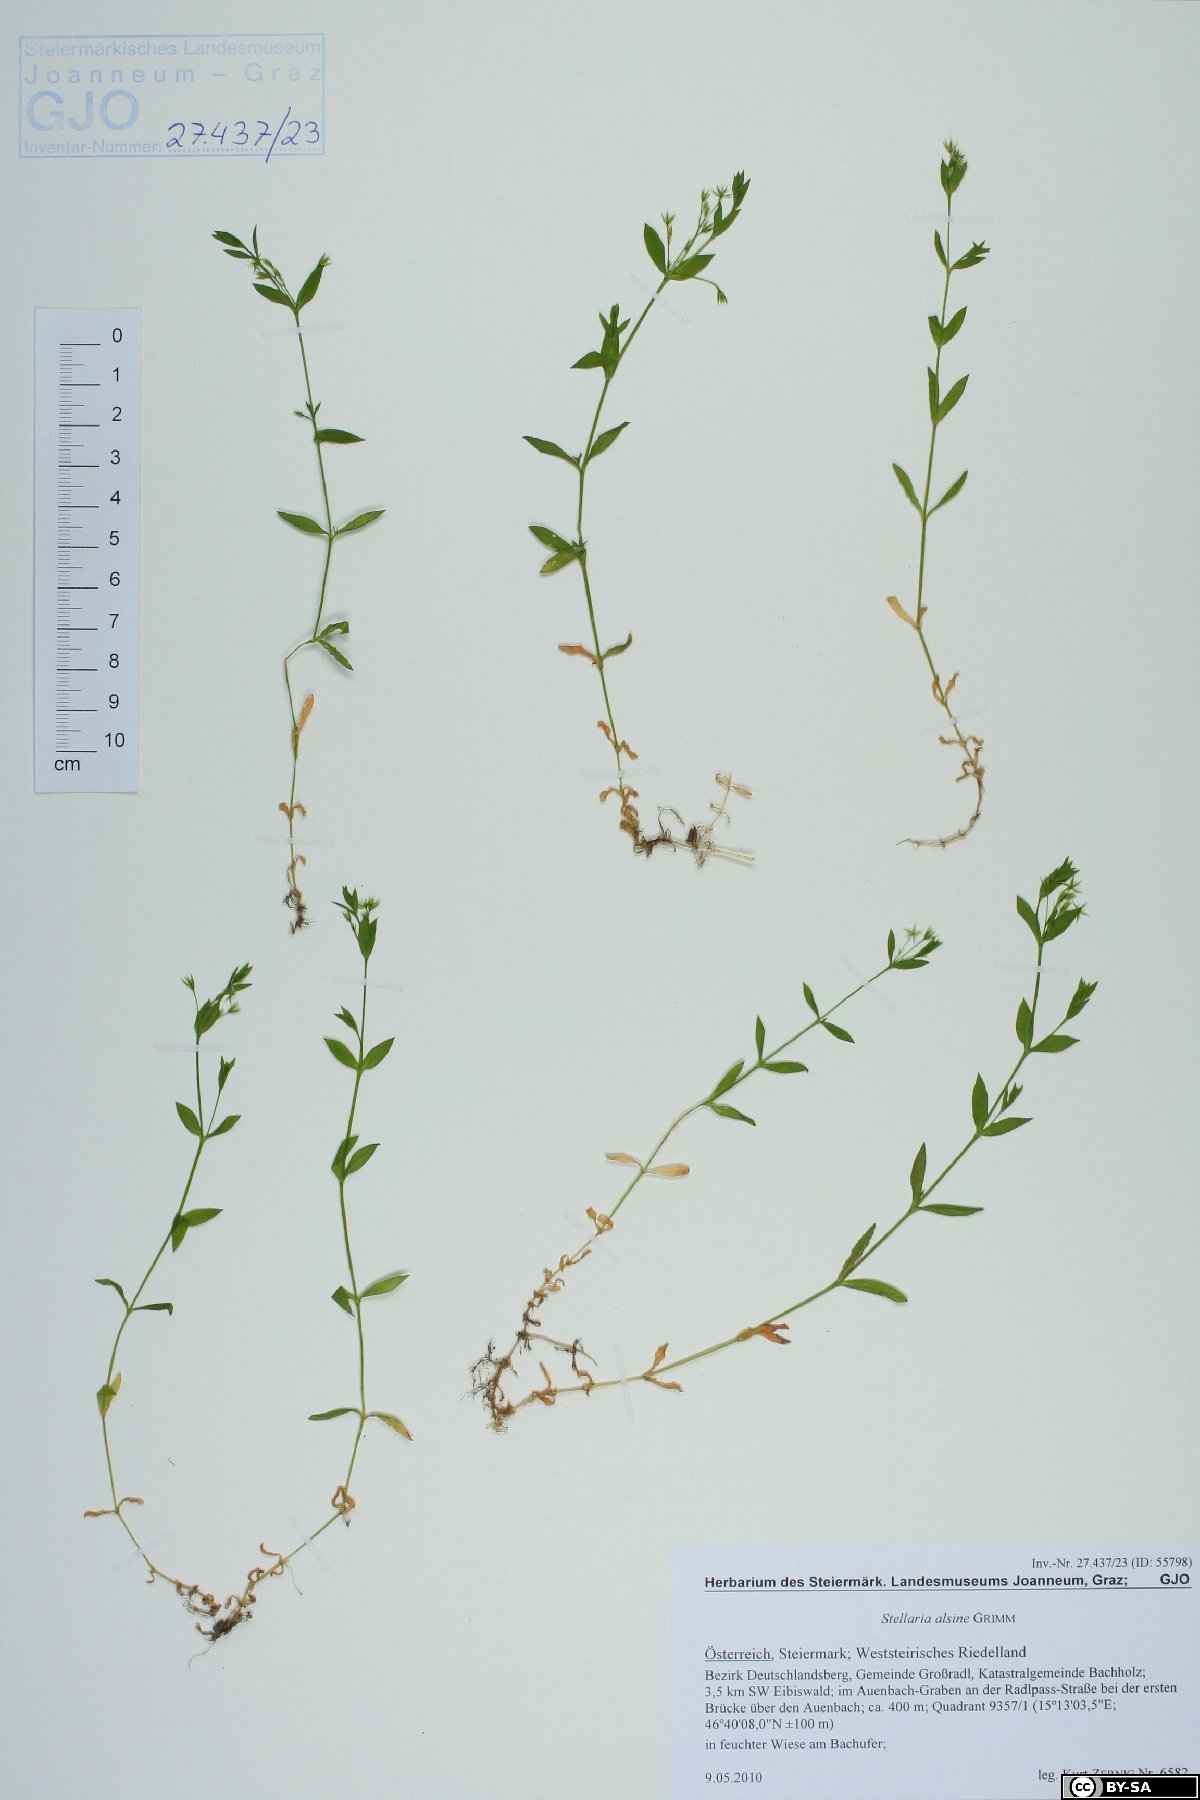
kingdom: Plantae
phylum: Tracheophyta
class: Magnoliopsida
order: Caryophyllales
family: Caryophyllaceae
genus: Stellaria
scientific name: Stellaria alsine
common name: Bog stitchwort
